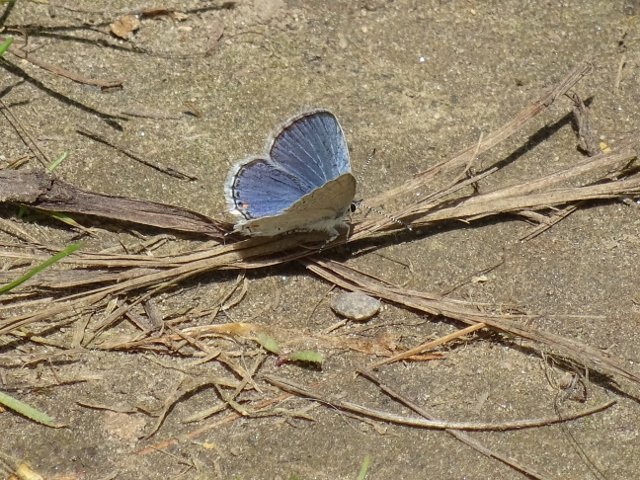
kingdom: Animalia
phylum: Arthropoda
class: Insecta
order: Lepidoptera
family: Lycaenidae
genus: Elkalyce
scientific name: Elkalyce comyntas
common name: Eastern Tailed-Blue
